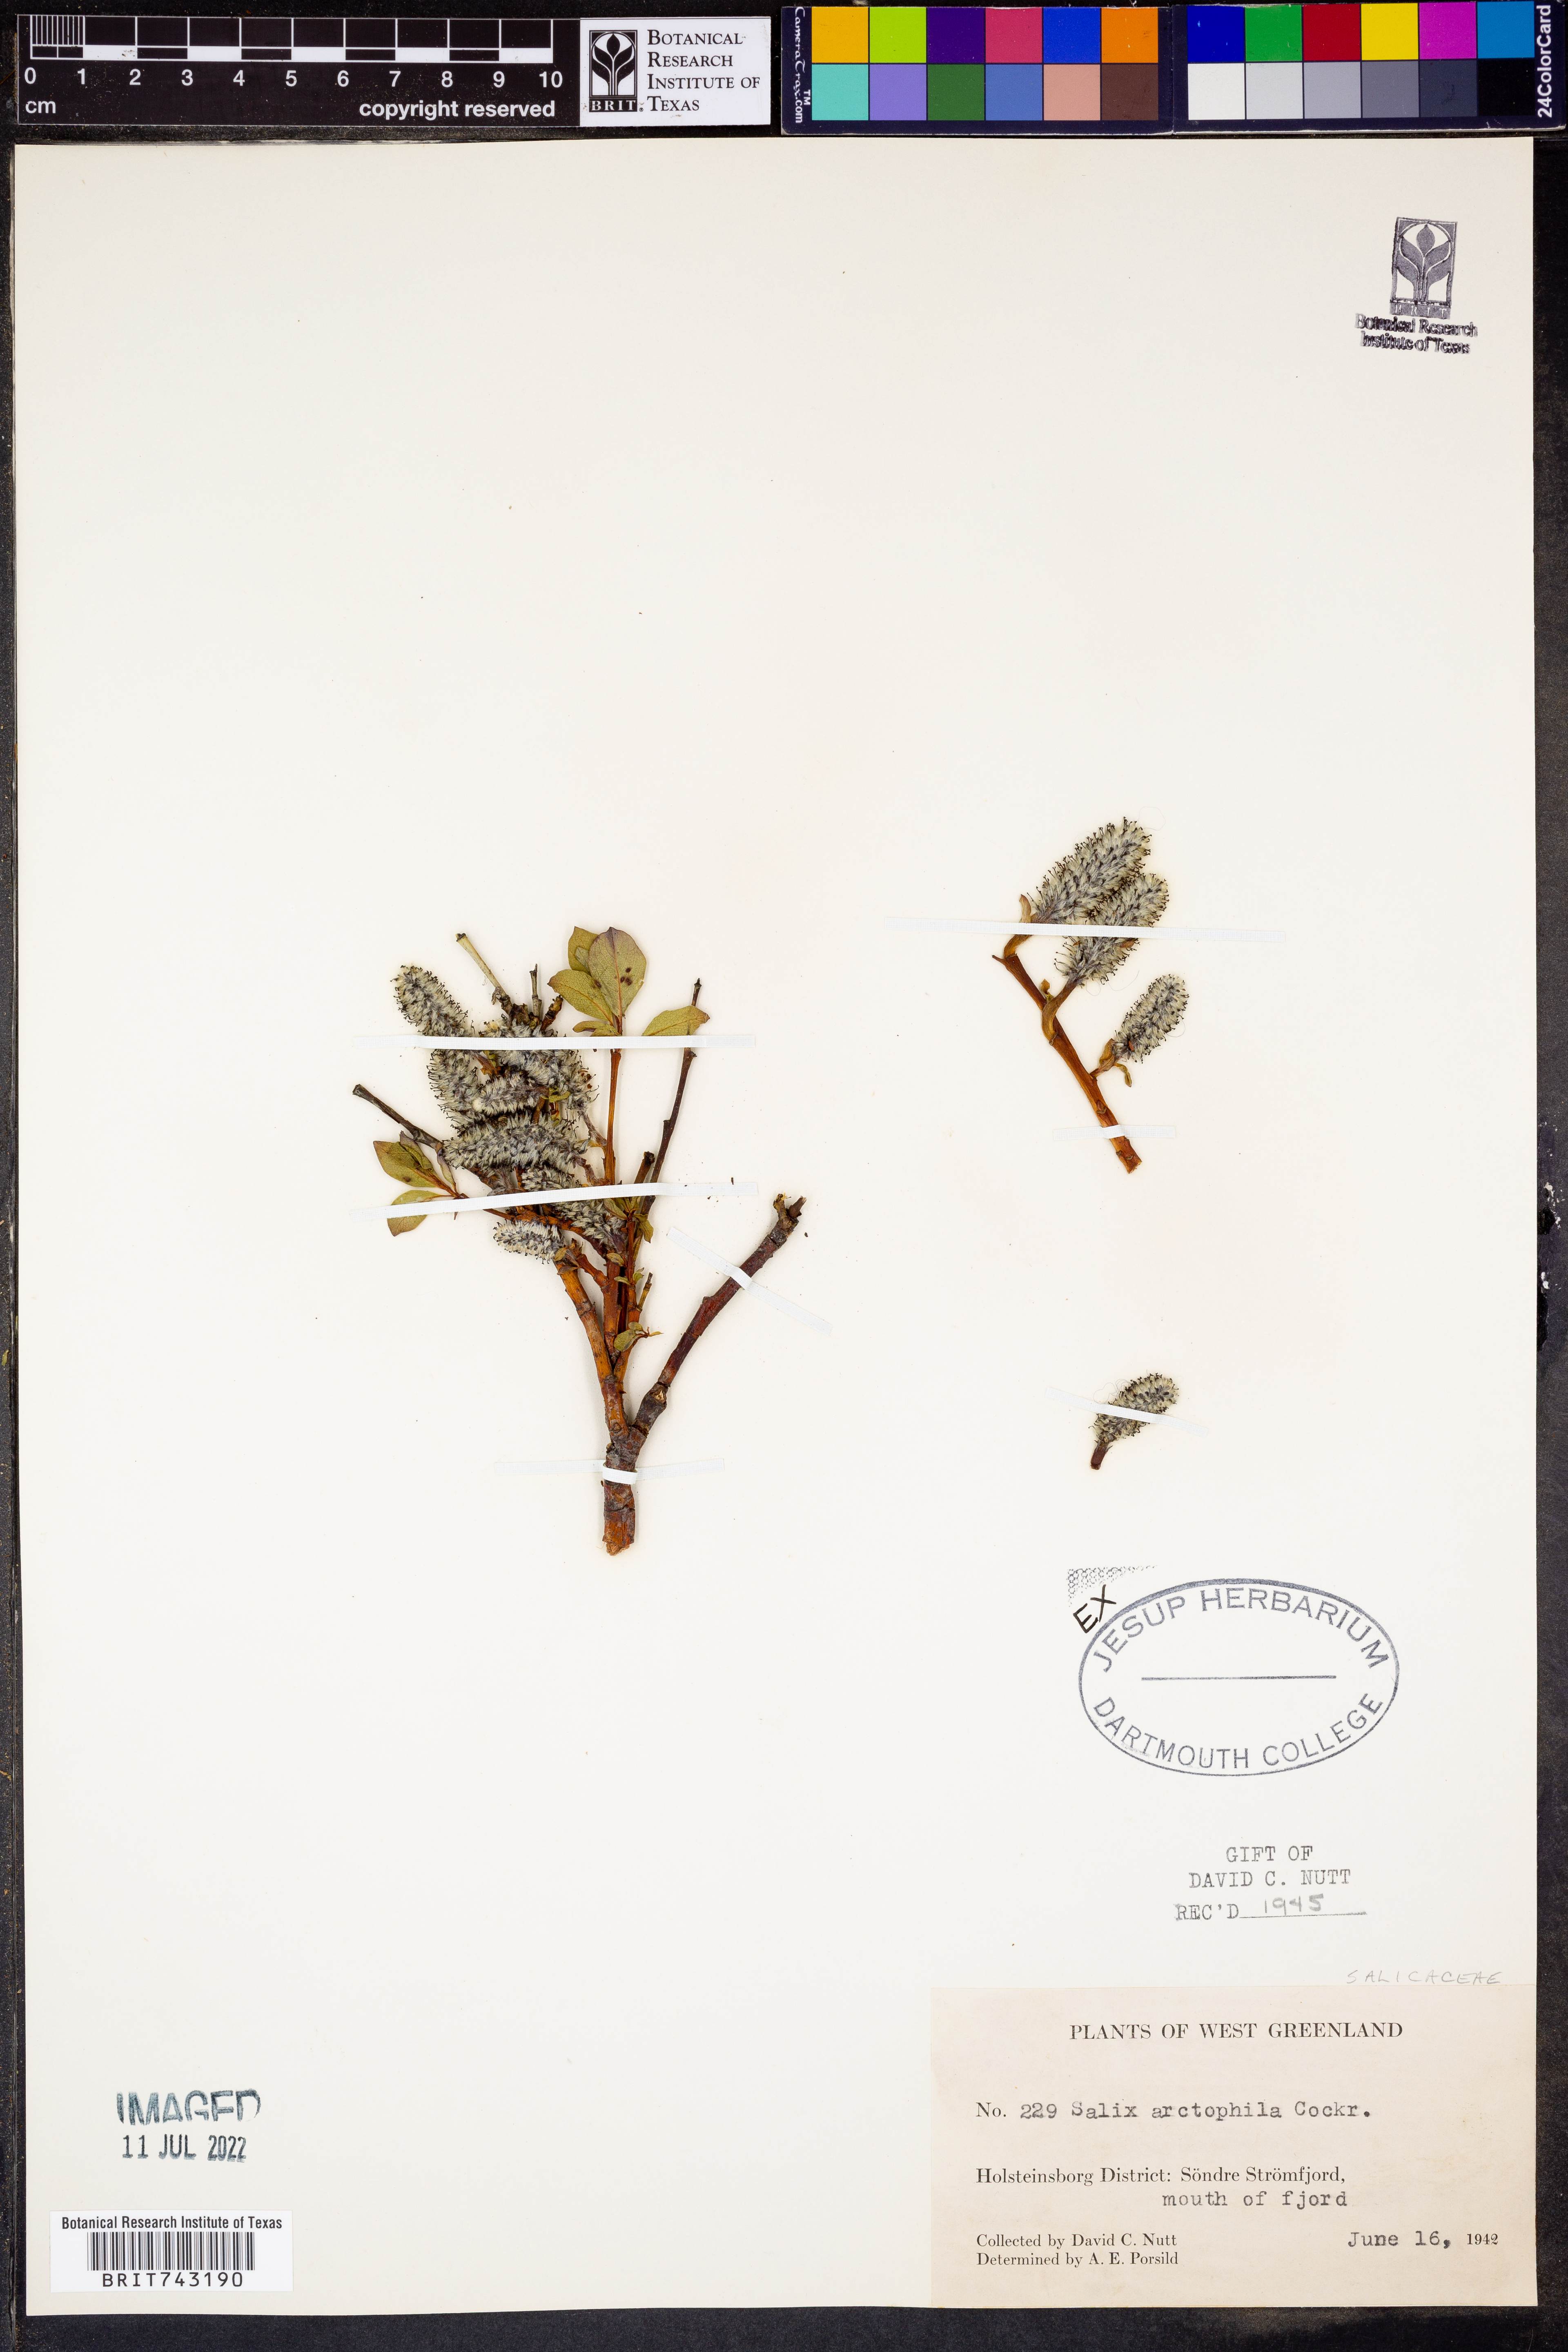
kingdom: Plantae
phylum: Tracheophyta
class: Magnoliopsida
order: Malpighiales
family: Salicaceae
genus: Salix
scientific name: Salix
